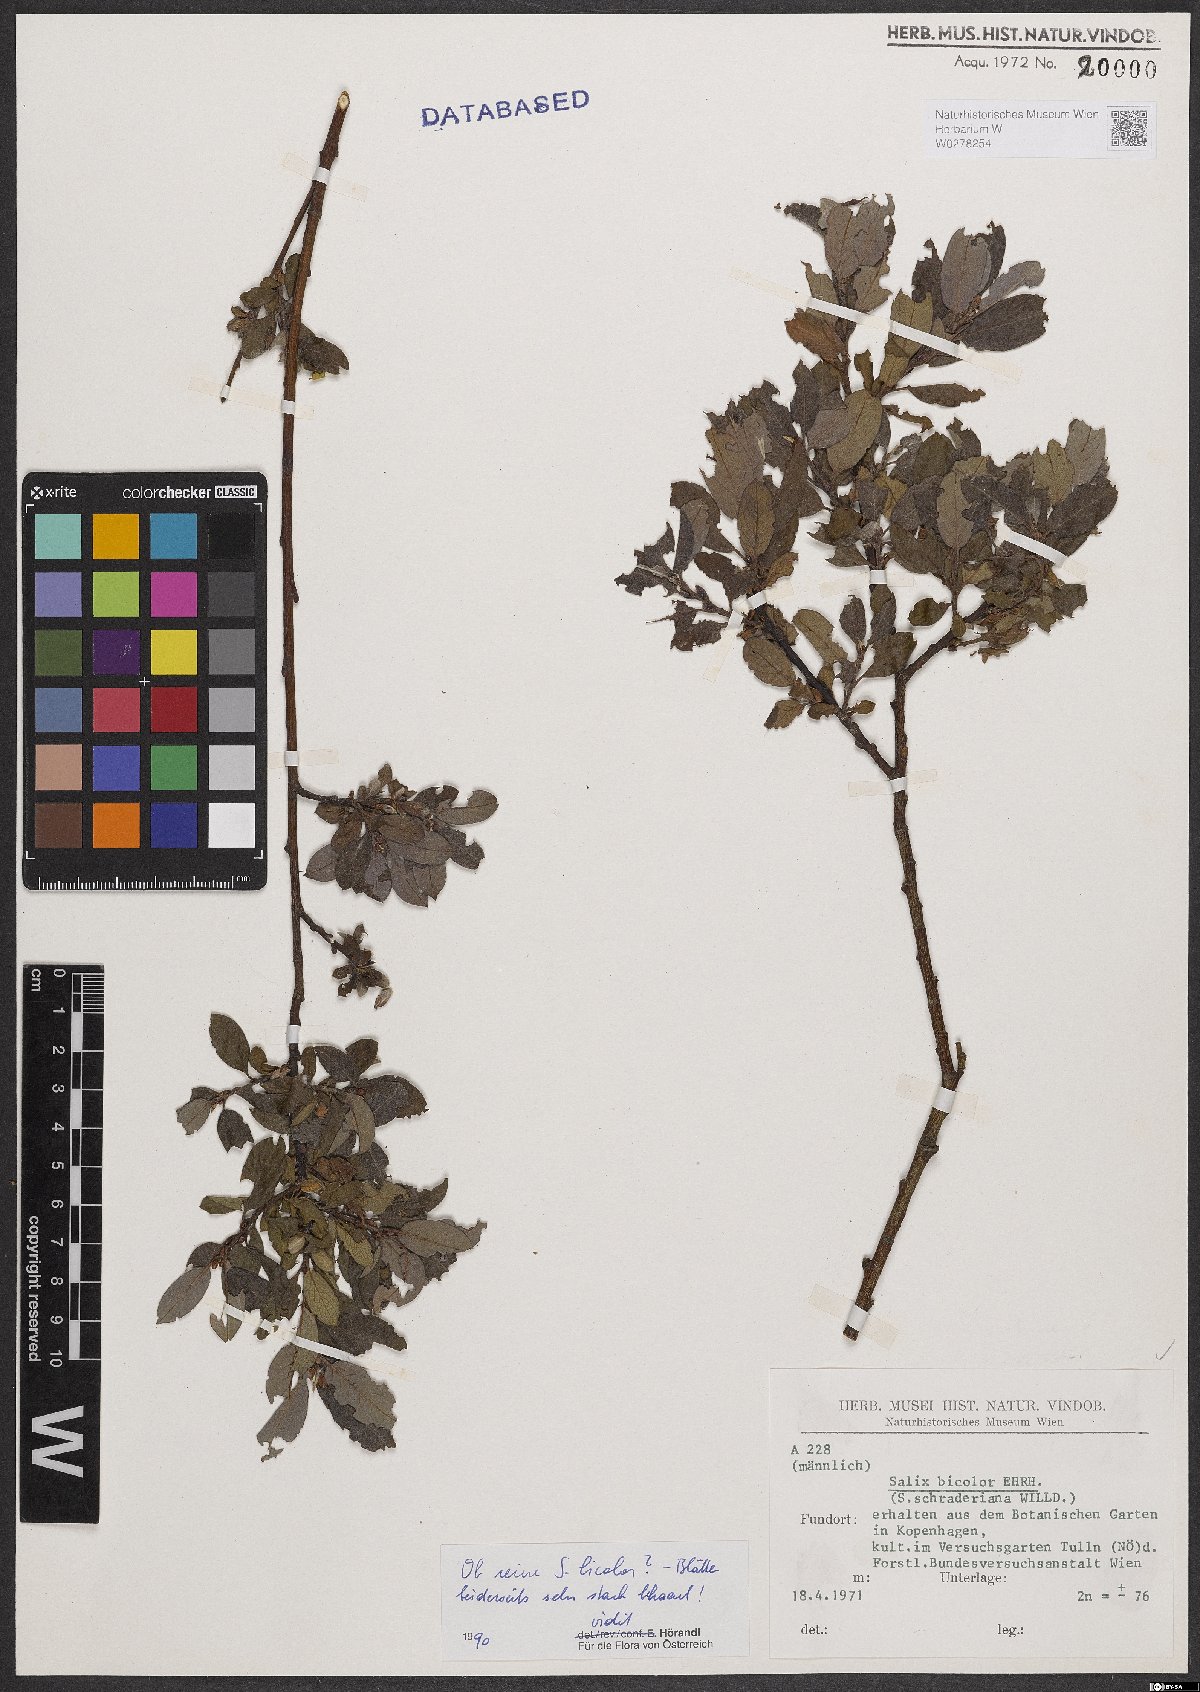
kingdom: Plantae
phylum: Tracheophyta
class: Magnoliopsida
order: Malpighiales
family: Salicaceae
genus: Salix
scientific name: Salix bicolor
